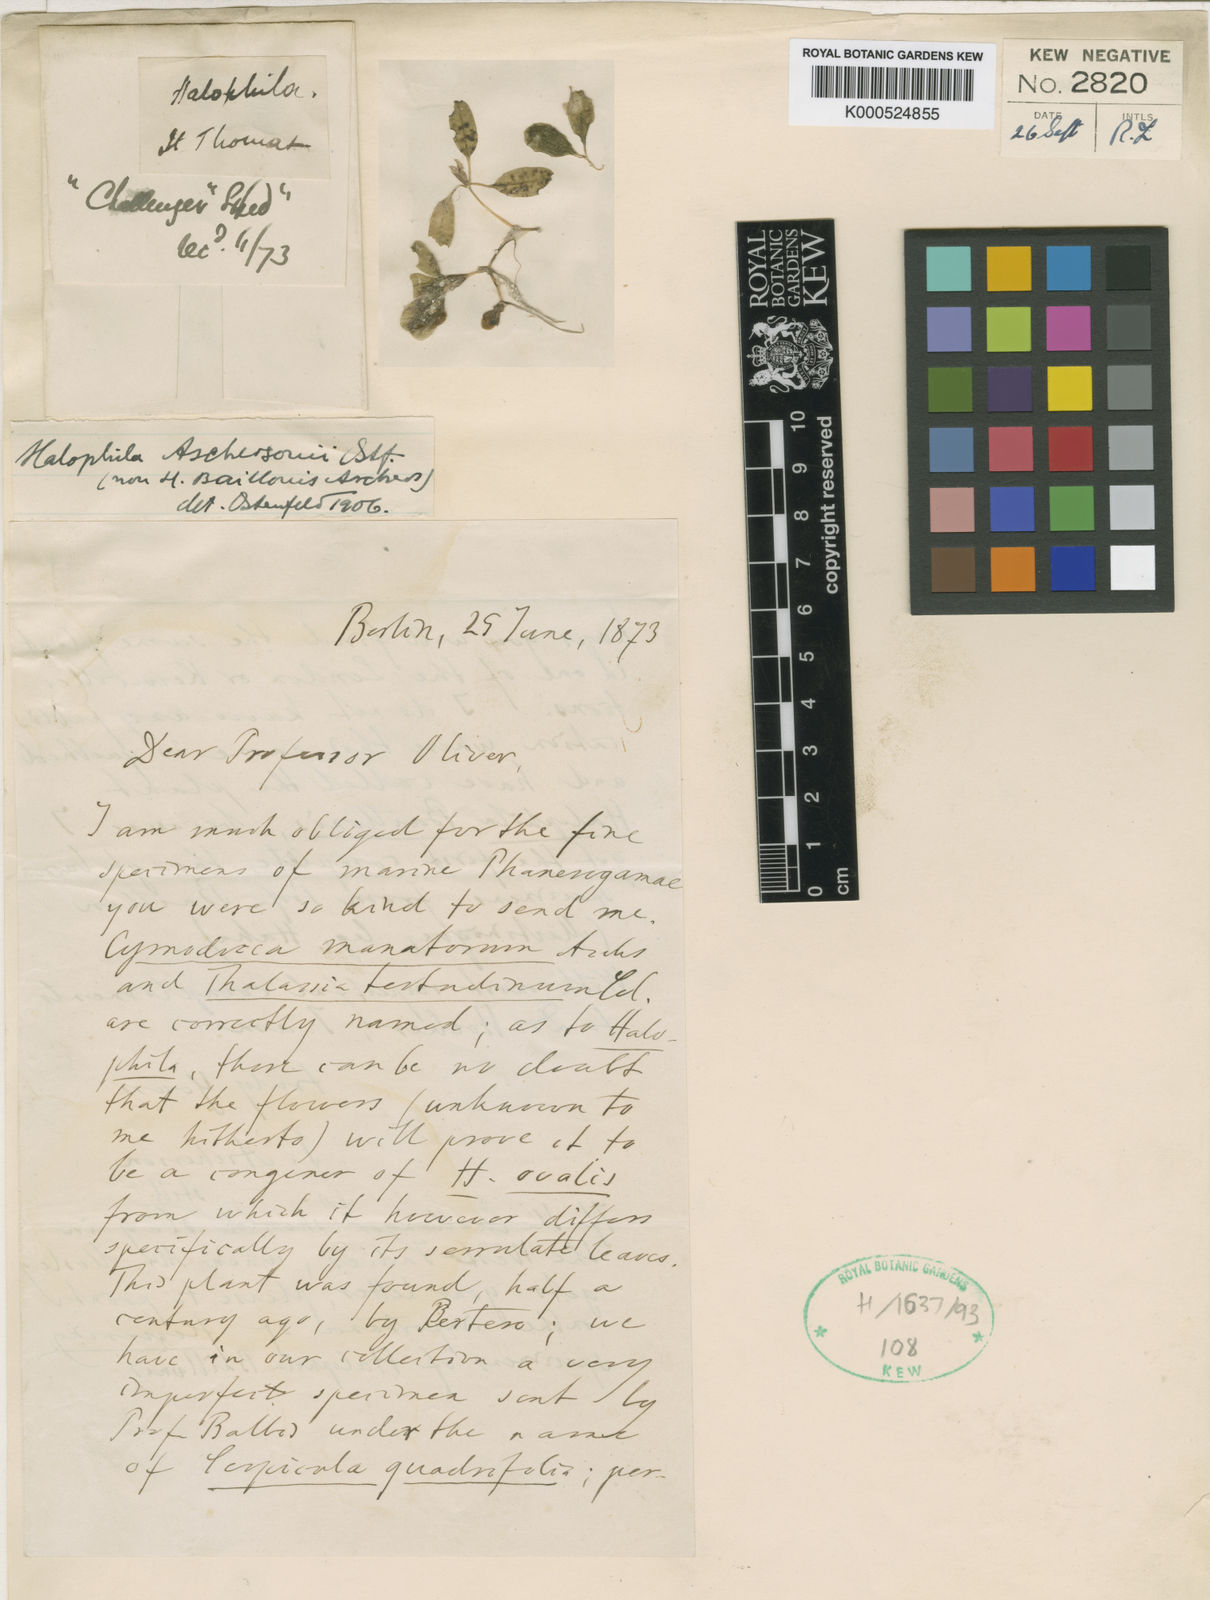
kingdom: Plantae
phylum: Tracheophyta
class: Liliopsida
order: Alismatales
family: Hydrocharitaceae
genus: Halophila
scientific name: Halophila baillonis
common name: Tapegrass
